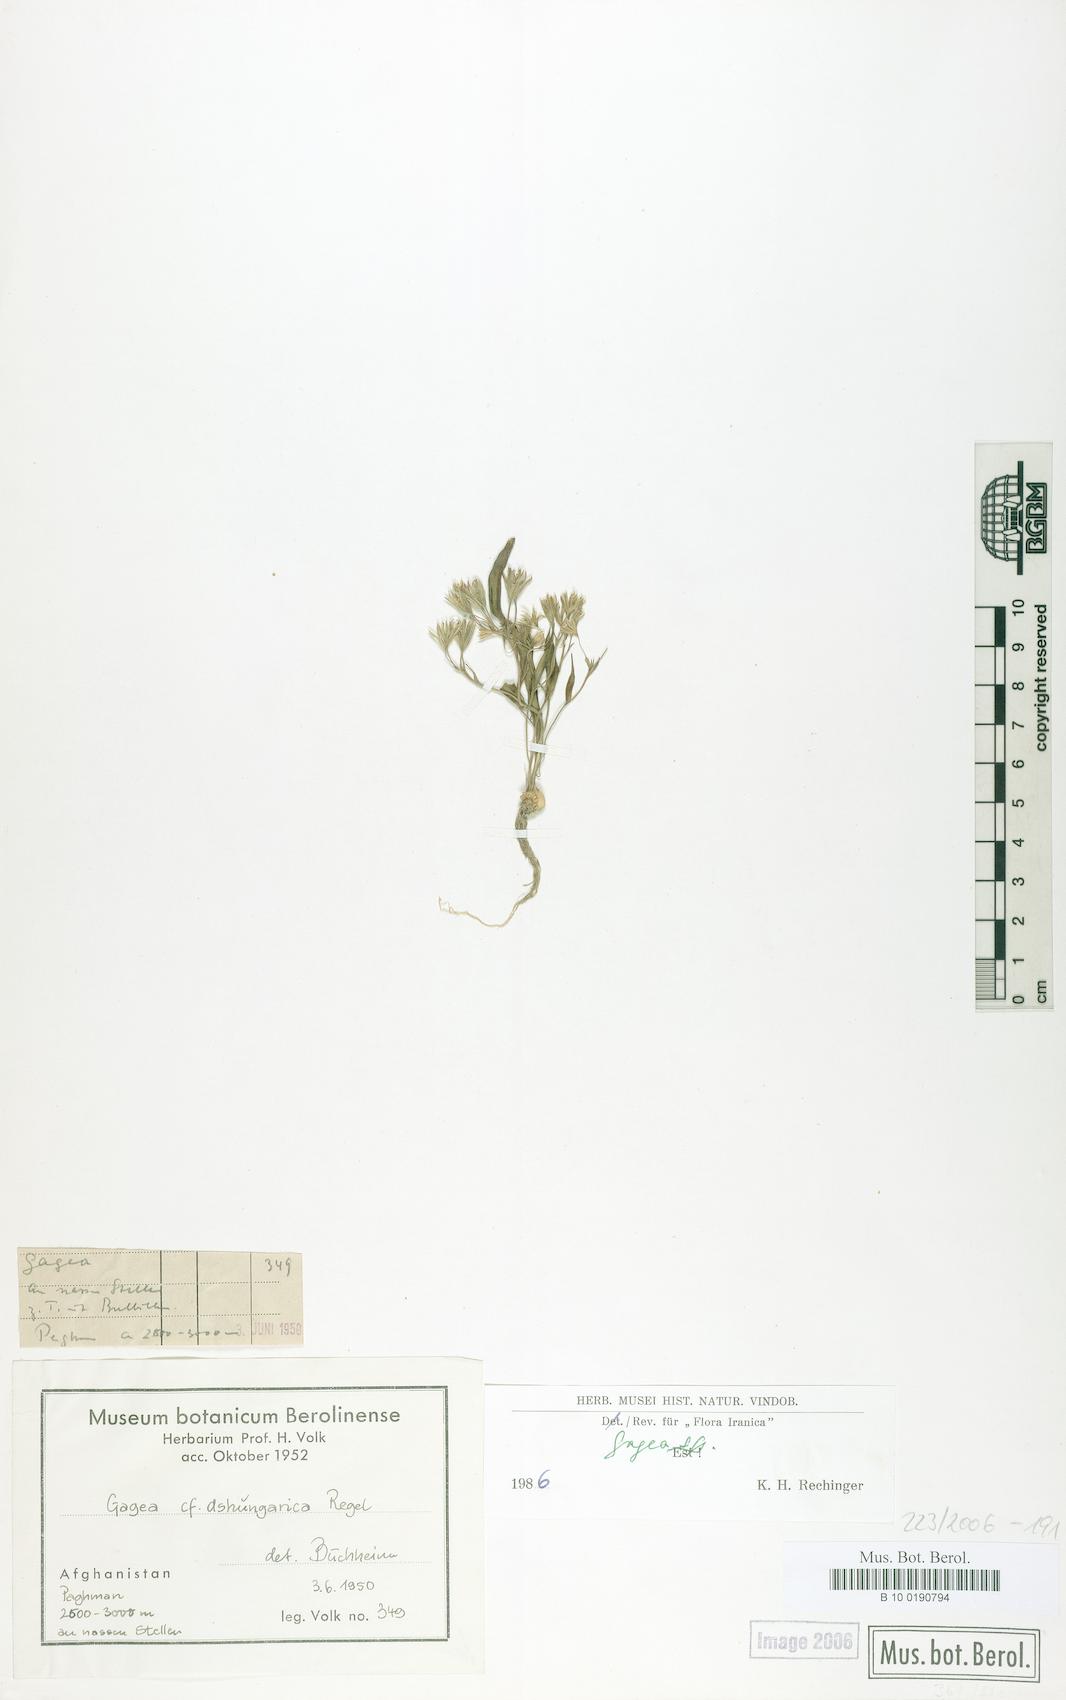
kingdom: Plantae
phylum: Tracheophyta
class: Liliopsida
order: Liliales
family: Liliaceae
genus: Gagea
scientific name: Gagea
